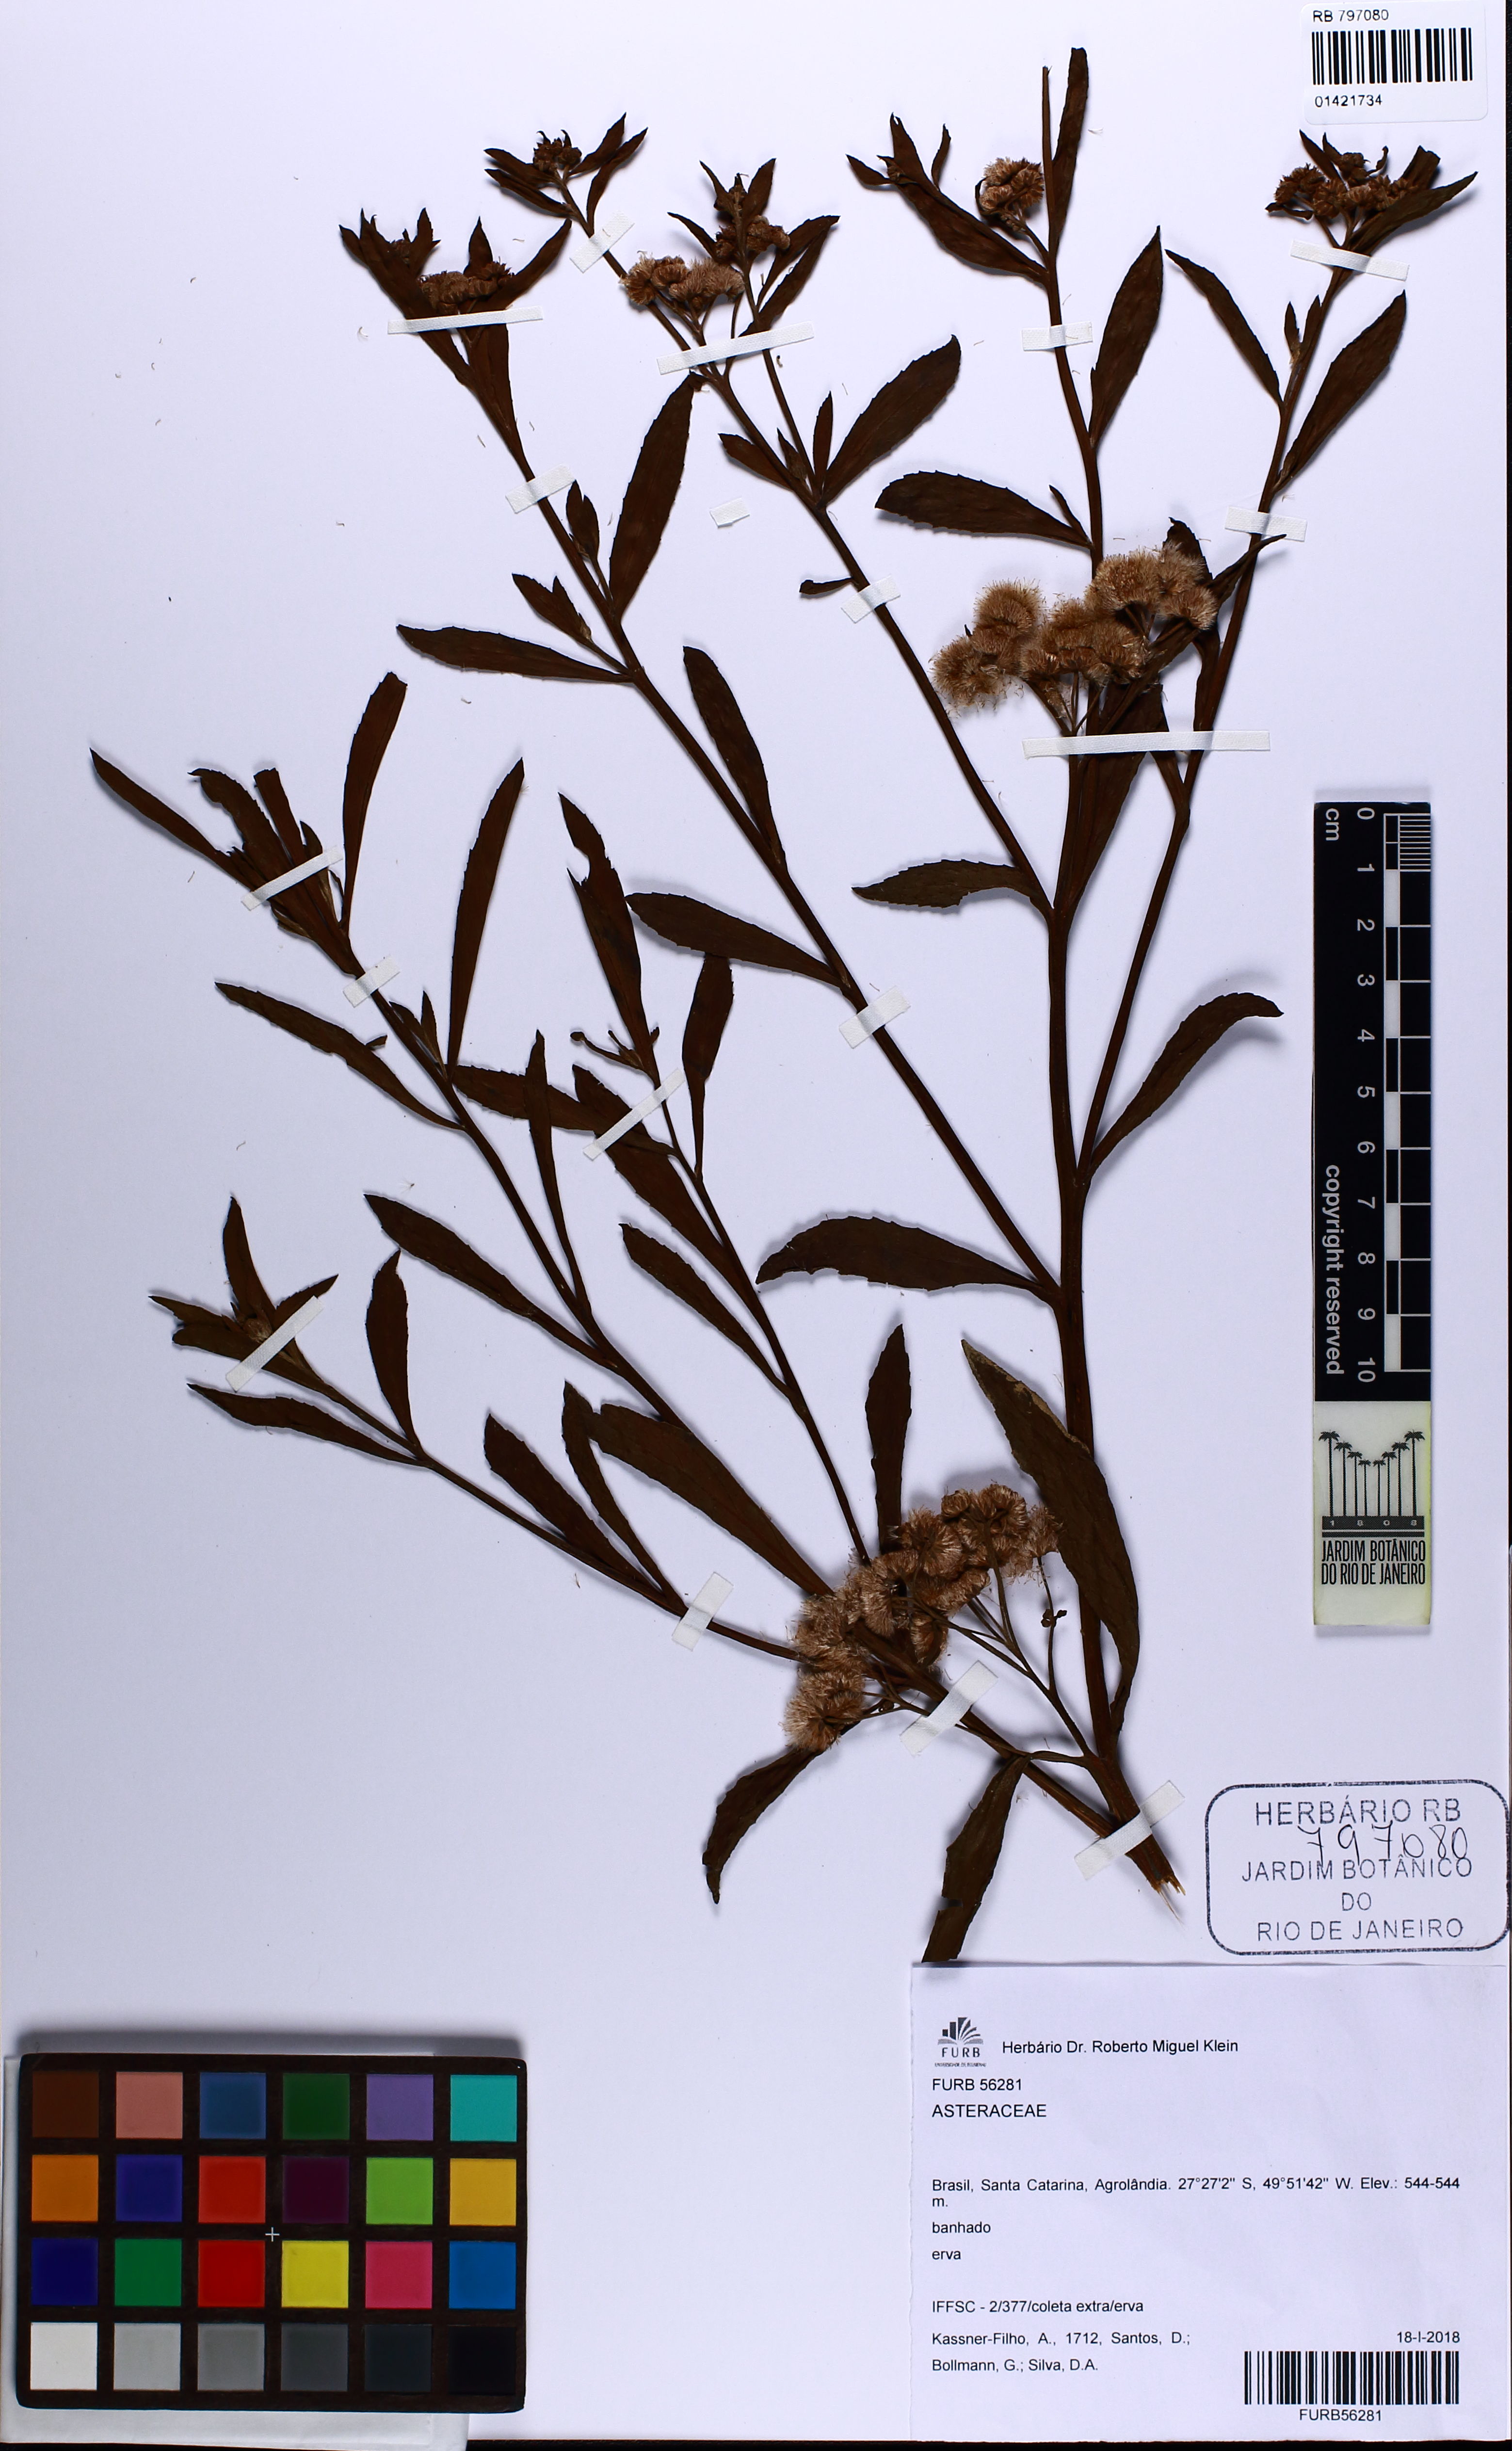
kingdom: Plantae
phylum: Tracheophyta
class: Magnoliopsida
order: Asterales
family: Asteraceae
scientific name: Asteraceae
